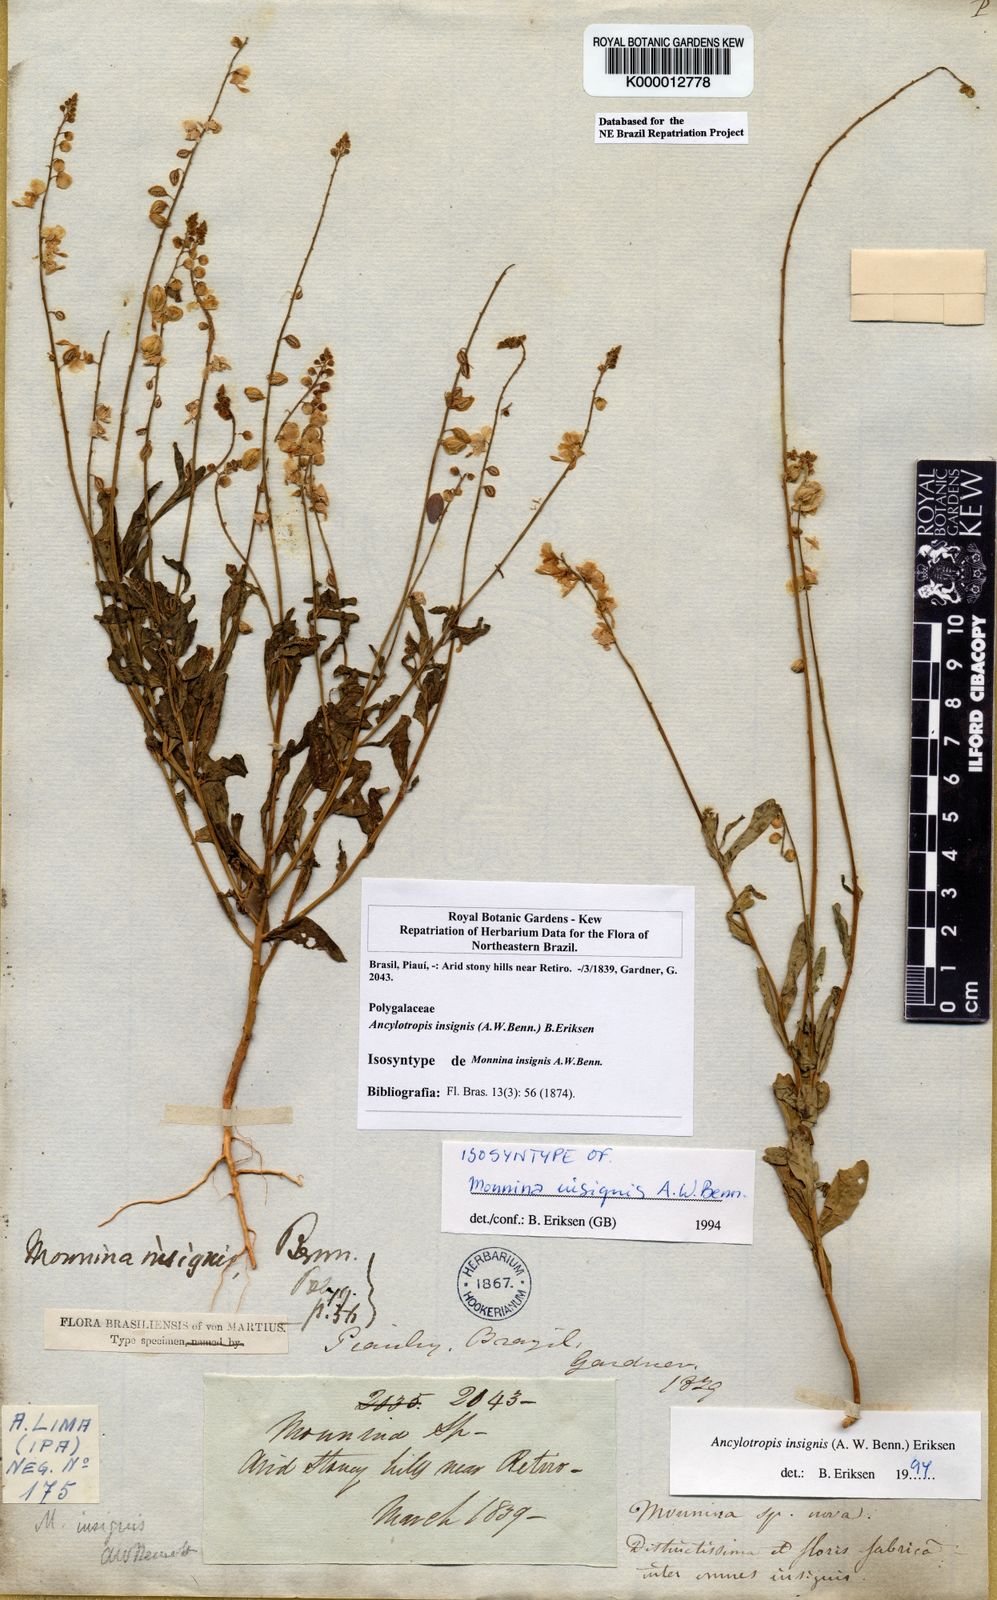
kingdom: Plantae
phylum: Tracheophyta
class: Magnoliopsida
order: Fabales
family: Polygalaceae
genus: Ancylotropis
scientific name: Ancylotropis insignis
